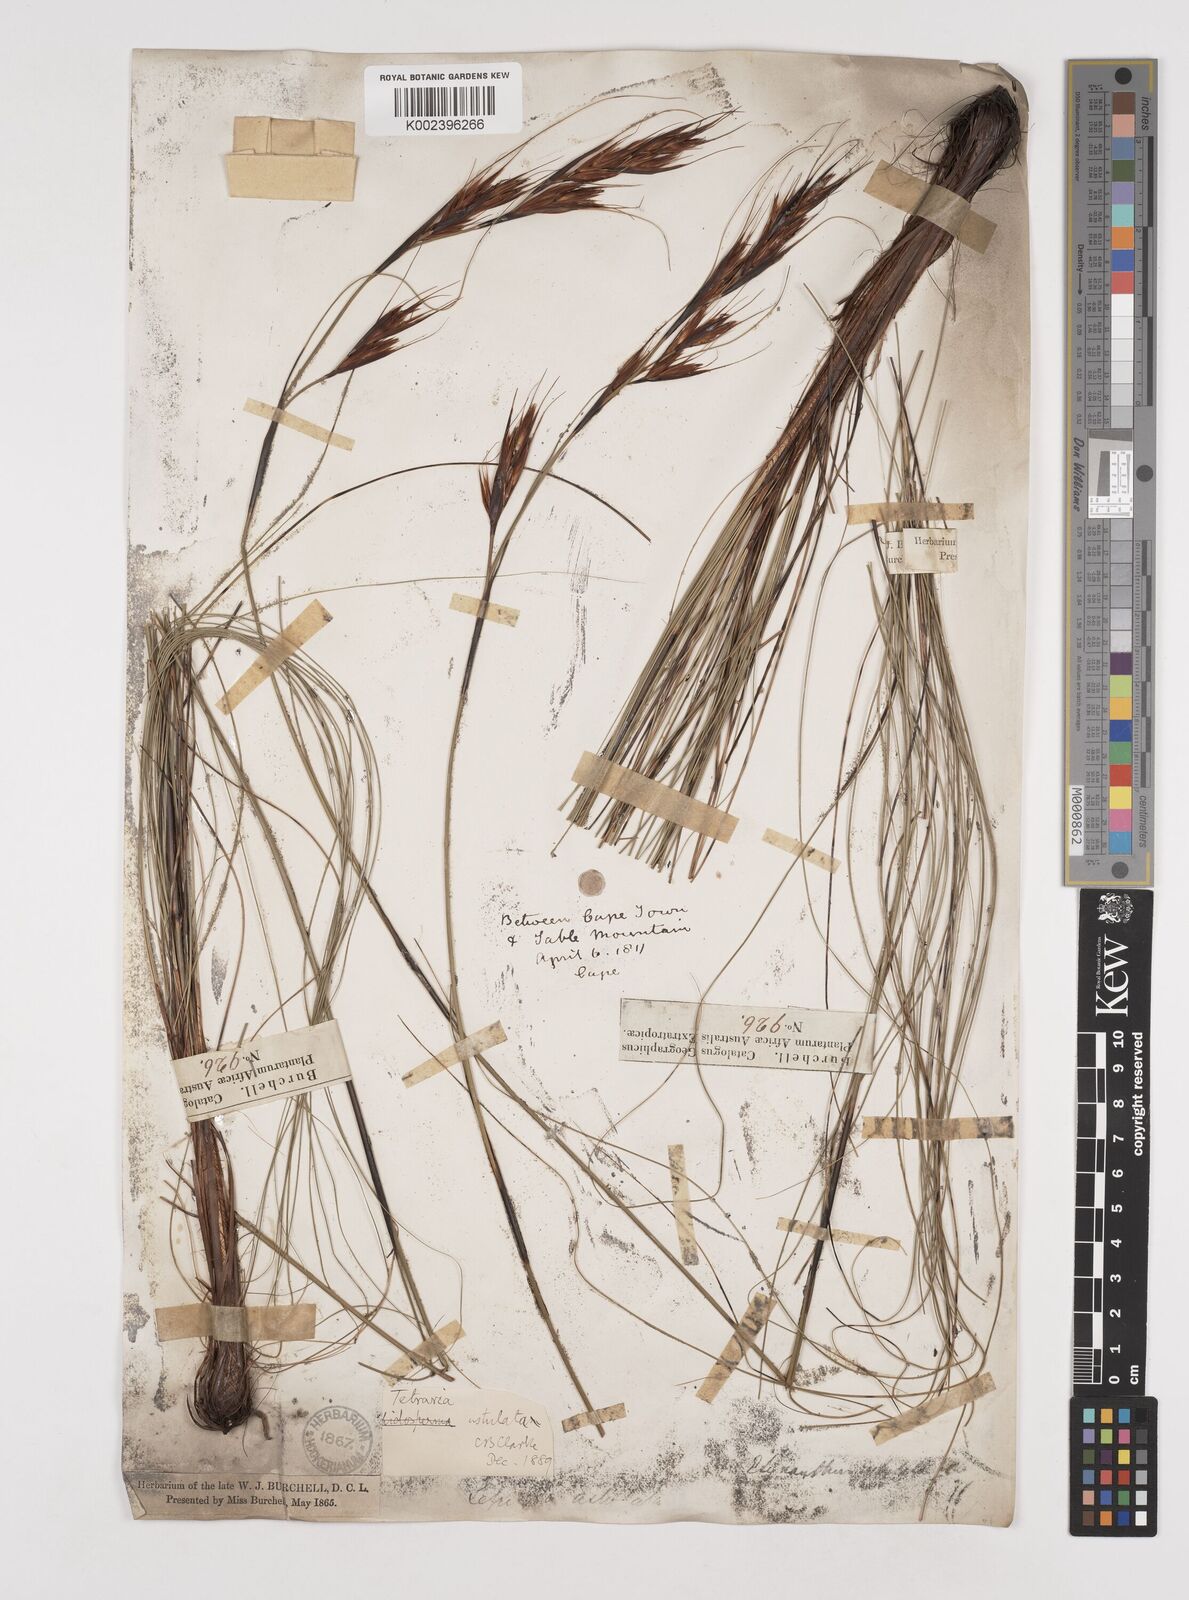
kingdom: Plantae
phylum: Tracheophyta
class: Liliopsida
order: Poales
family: Cyperaceae
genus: Tetraria
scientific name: Tetraria ustulata
